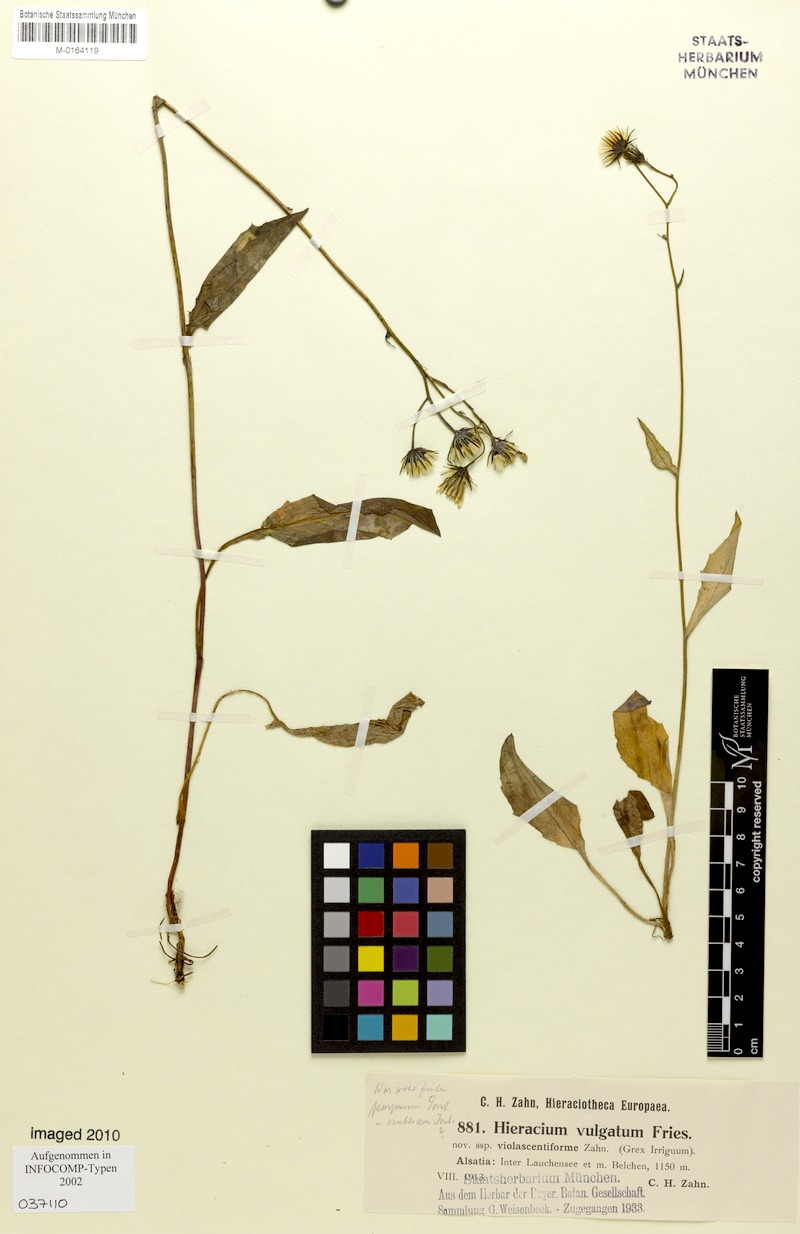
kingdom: Plantae
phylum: Tracheophyta
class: Magnoliopsida
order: Asterales
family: Asteraceae
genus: Hieracium
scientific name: Hieracium lachenalii
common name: Common hawkweed
